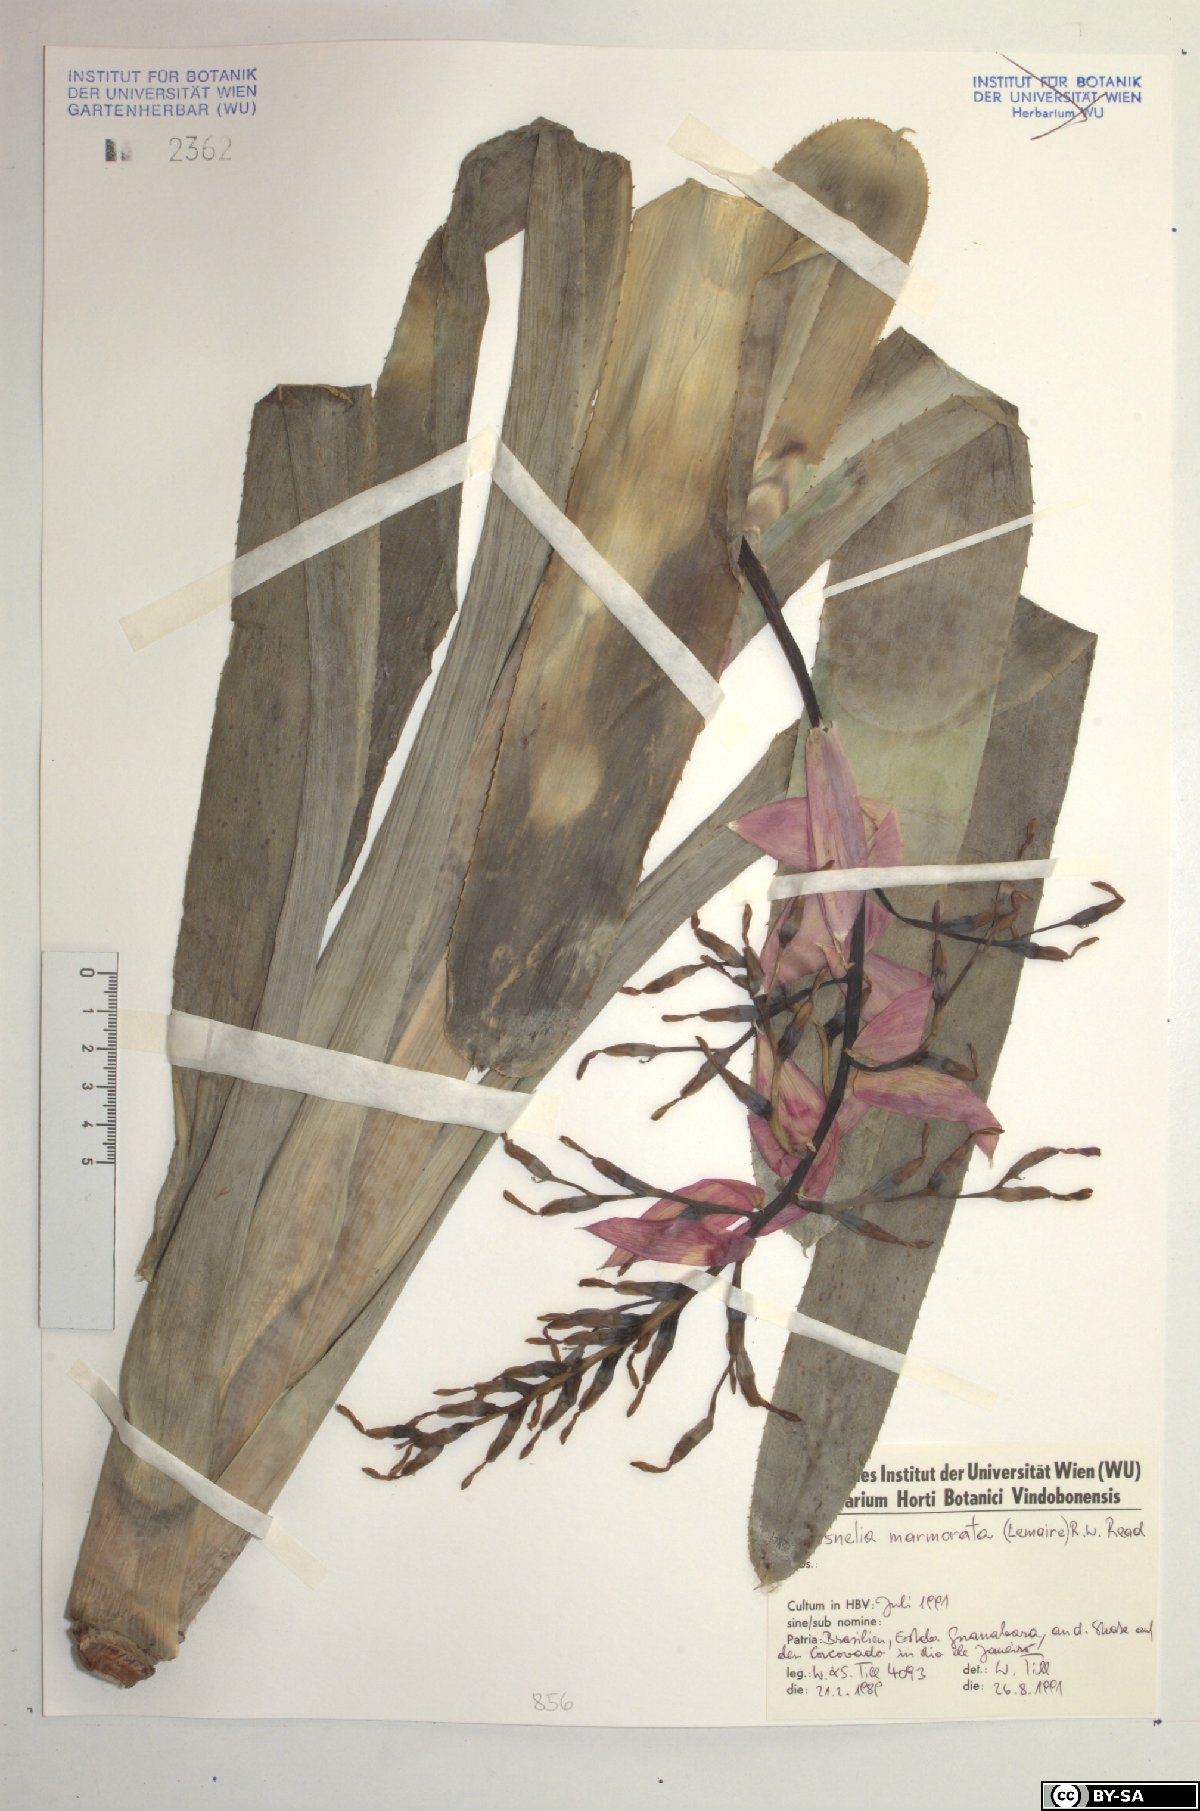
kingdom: Plantae
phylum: Tracheophyta
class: Liliopsida
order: Poales
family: Bromeliaceae
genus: Quesnelia
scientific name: Quesnelia marmorata
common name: Grecian urnplant
